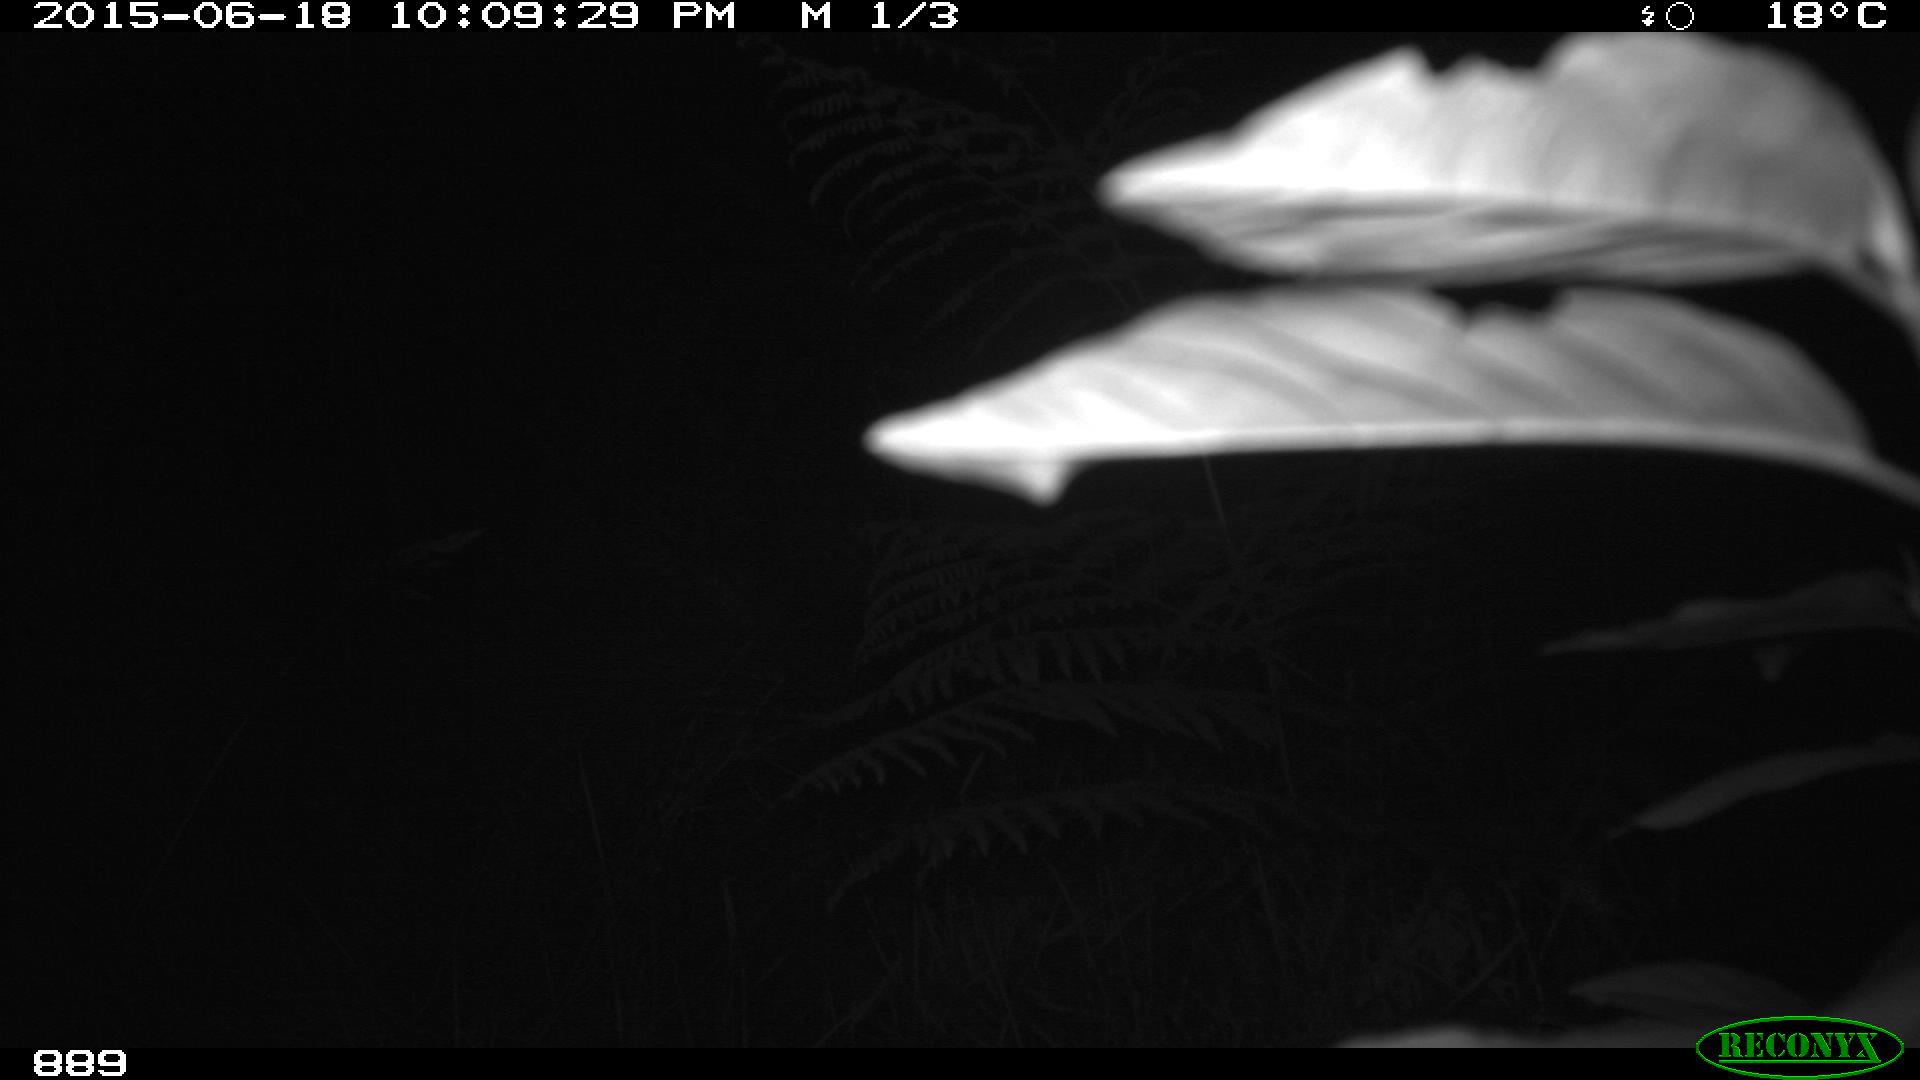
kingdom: Animalia
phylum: Chordata
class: Mammalia
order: Artiodactyla
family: Suidae
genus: Sus
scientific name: Sus scrofa
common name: Wild boar
